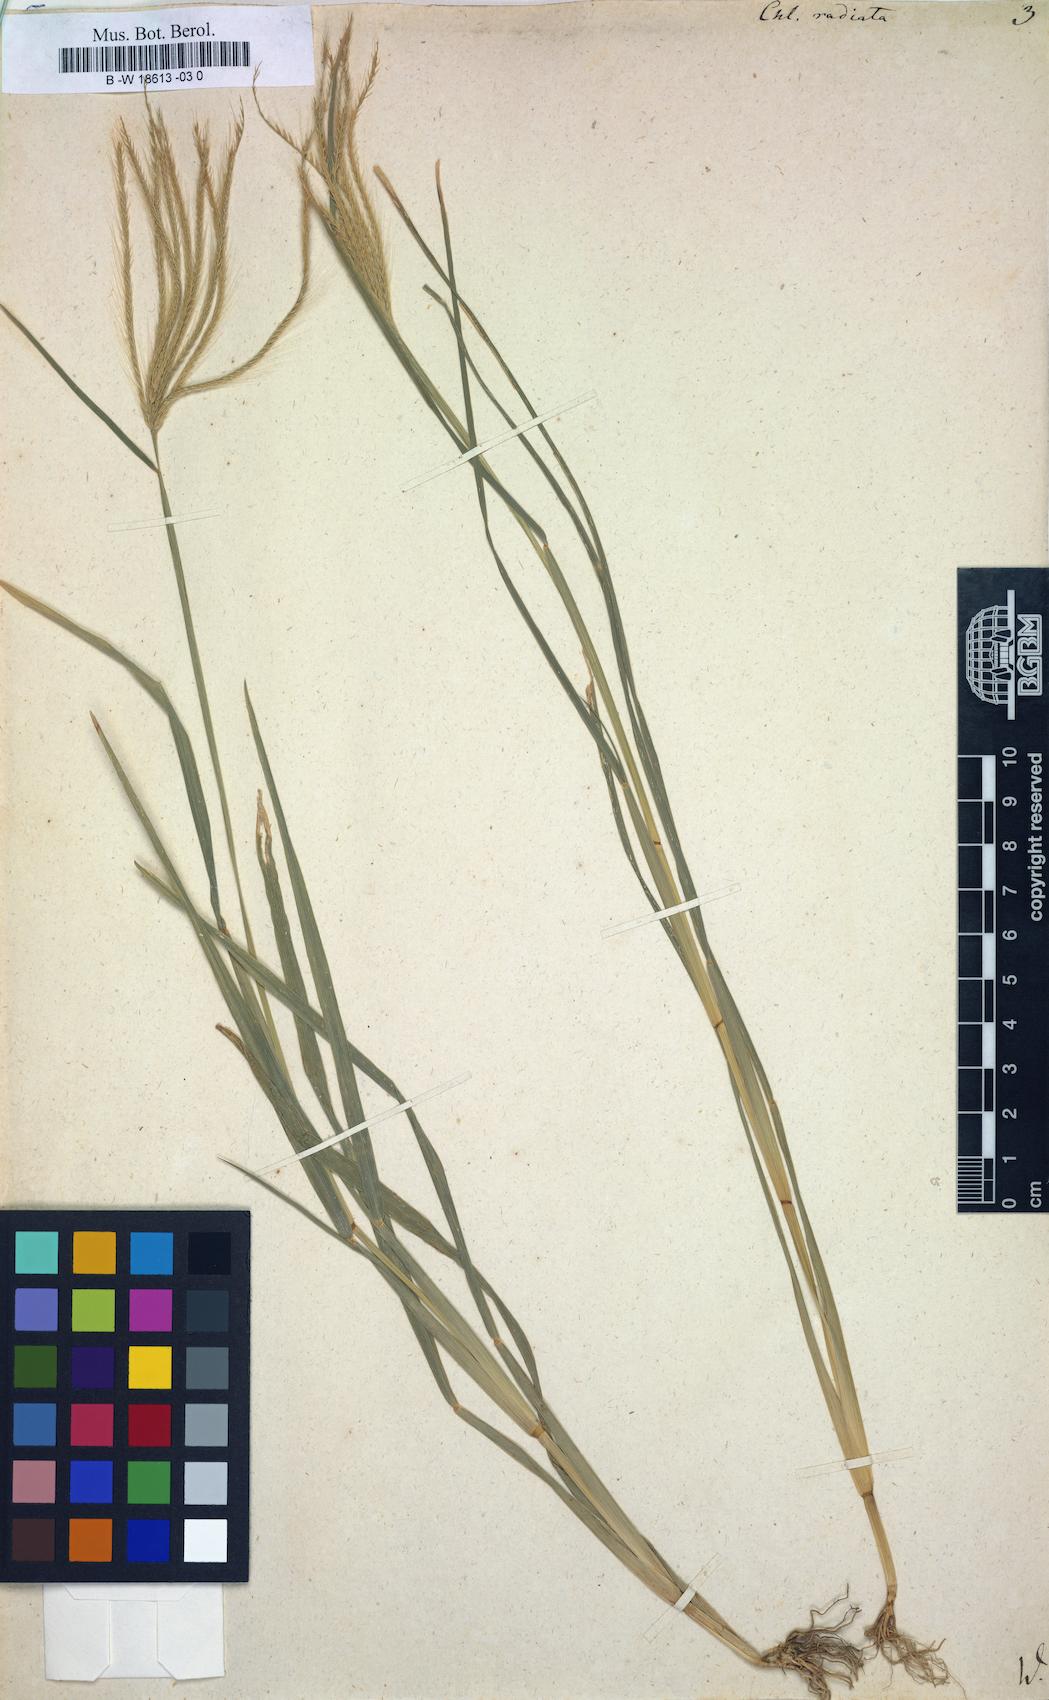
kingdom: Plantae
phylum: Tracheophyta
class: Liliopsida
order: Poales
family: Poaceae
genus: Chloris
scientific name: Chloris radiata
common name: Radiate fingergrass
